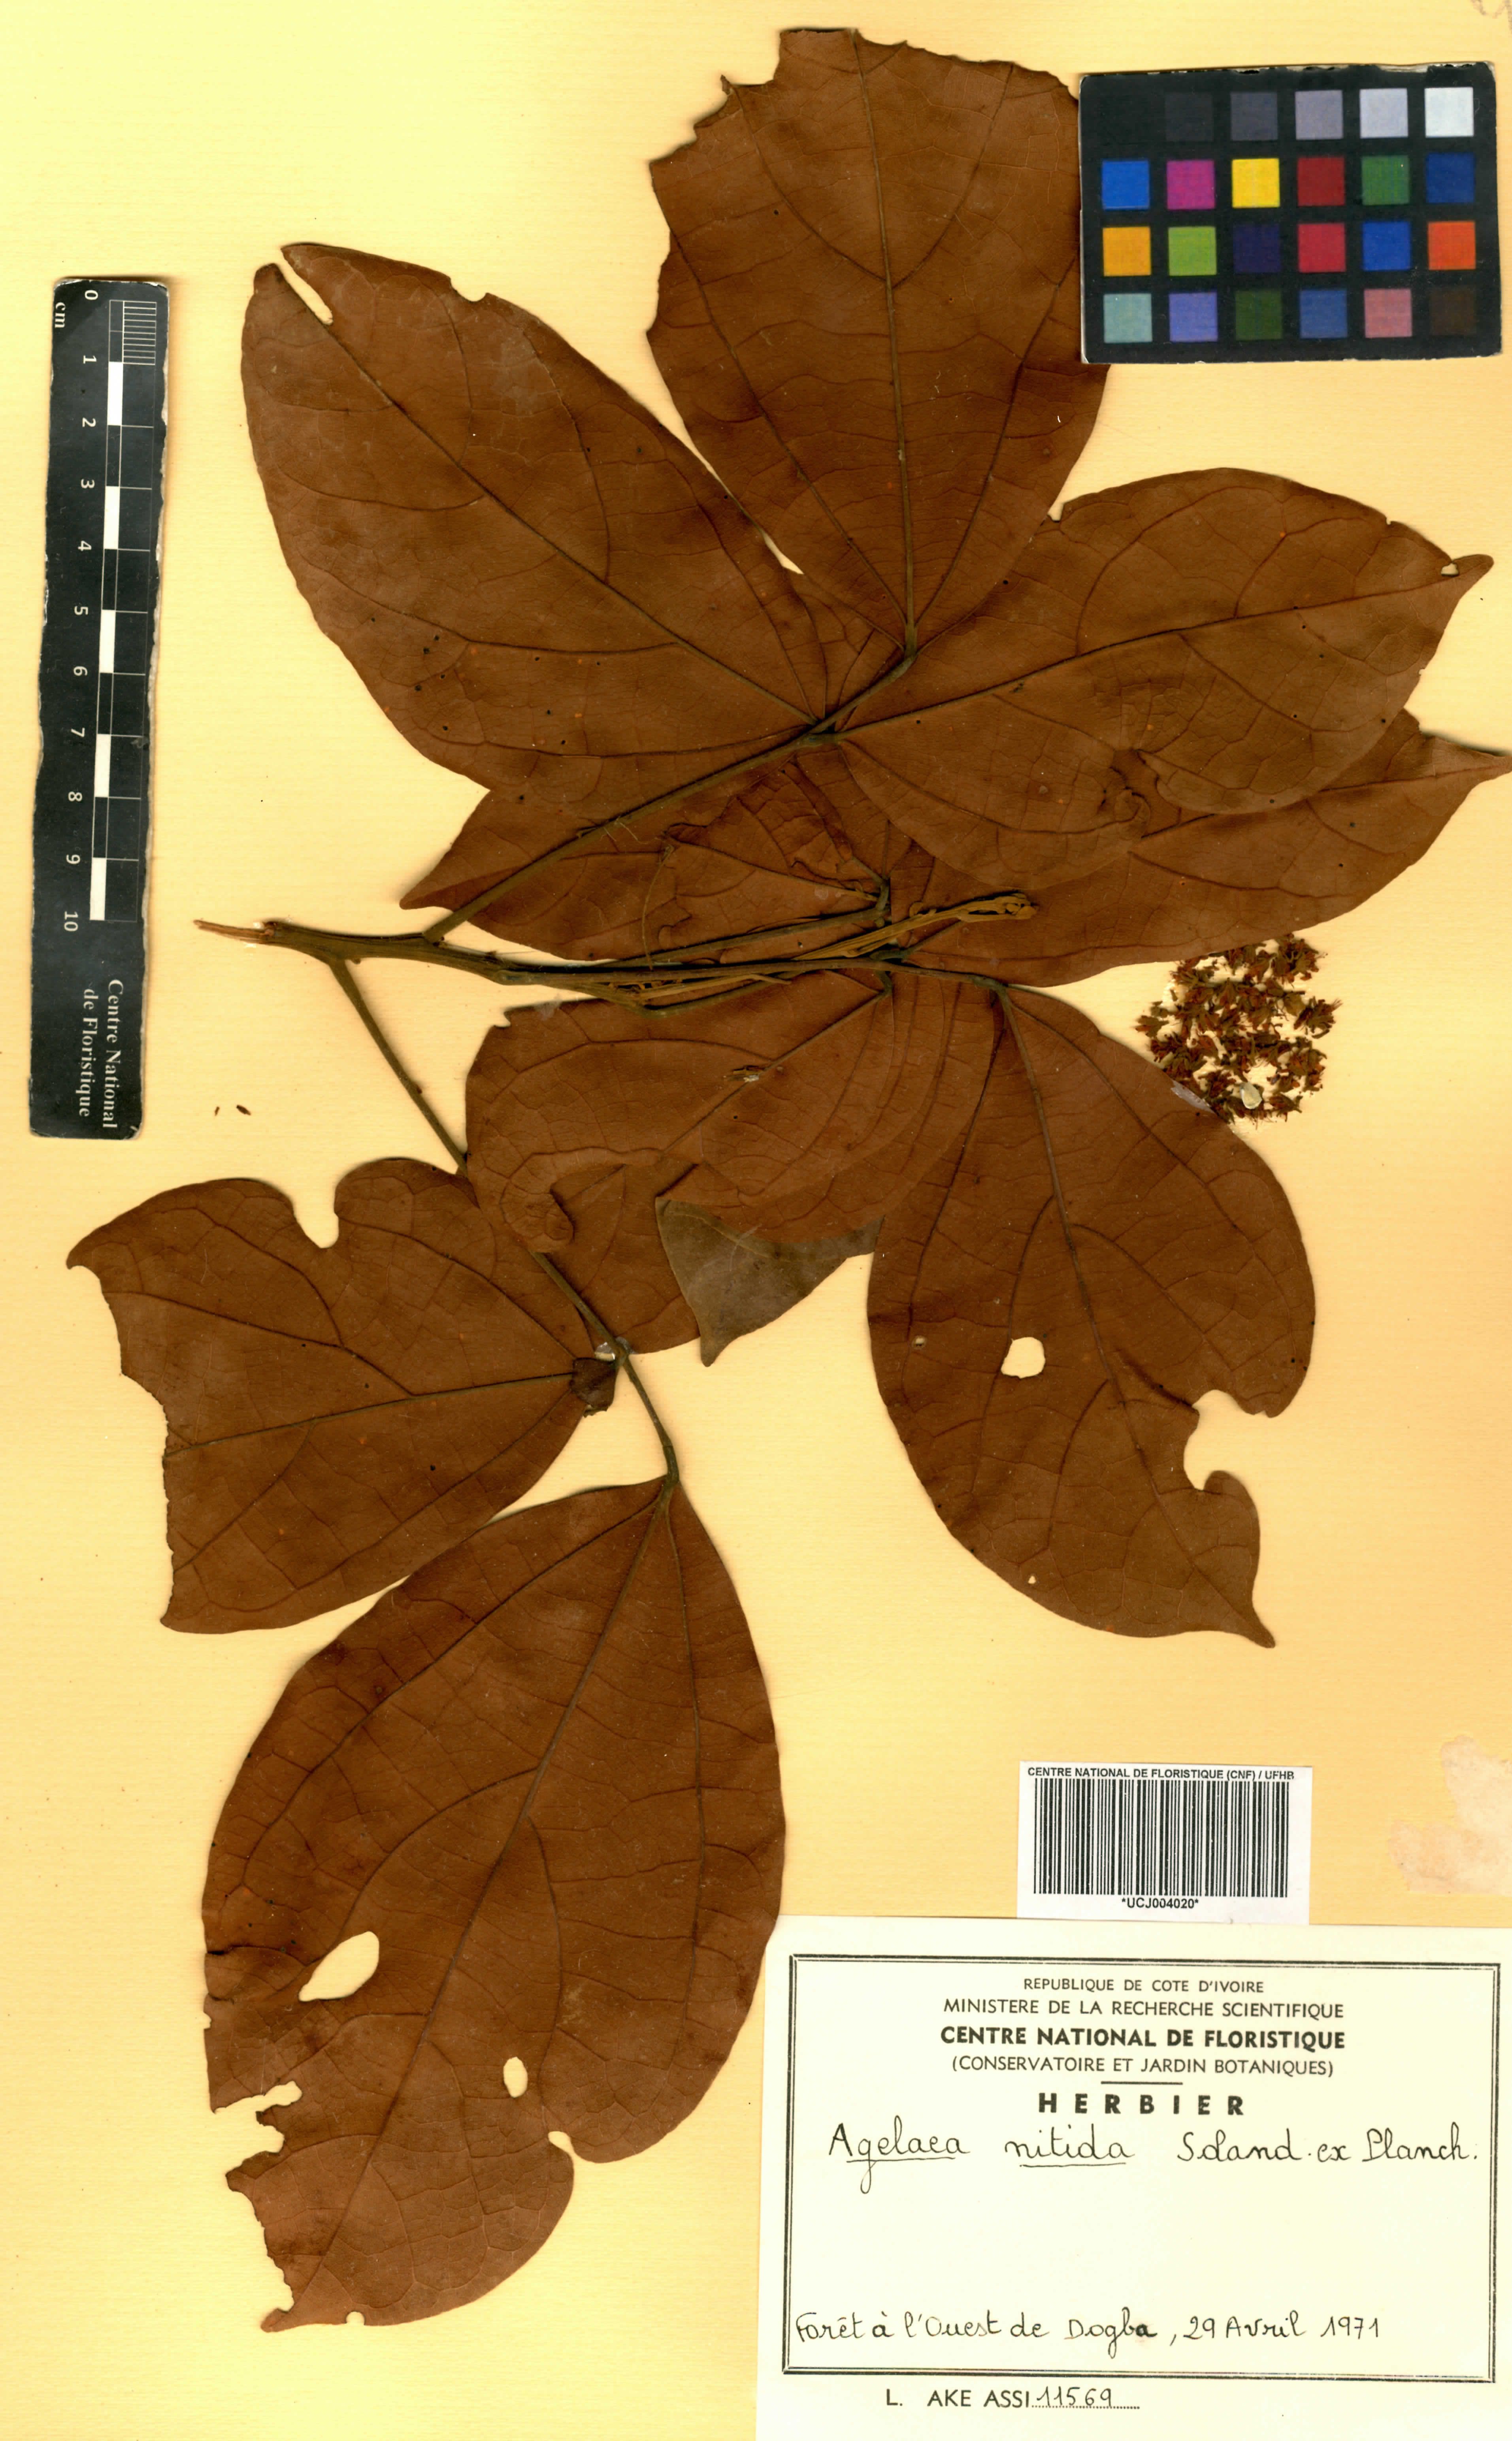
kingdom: Plantae
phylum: Tracheophyta
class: Magnoliopsida
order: Oxalidales
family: Connaraceae
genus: Agelaea
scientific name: Agelaea pentagyna
